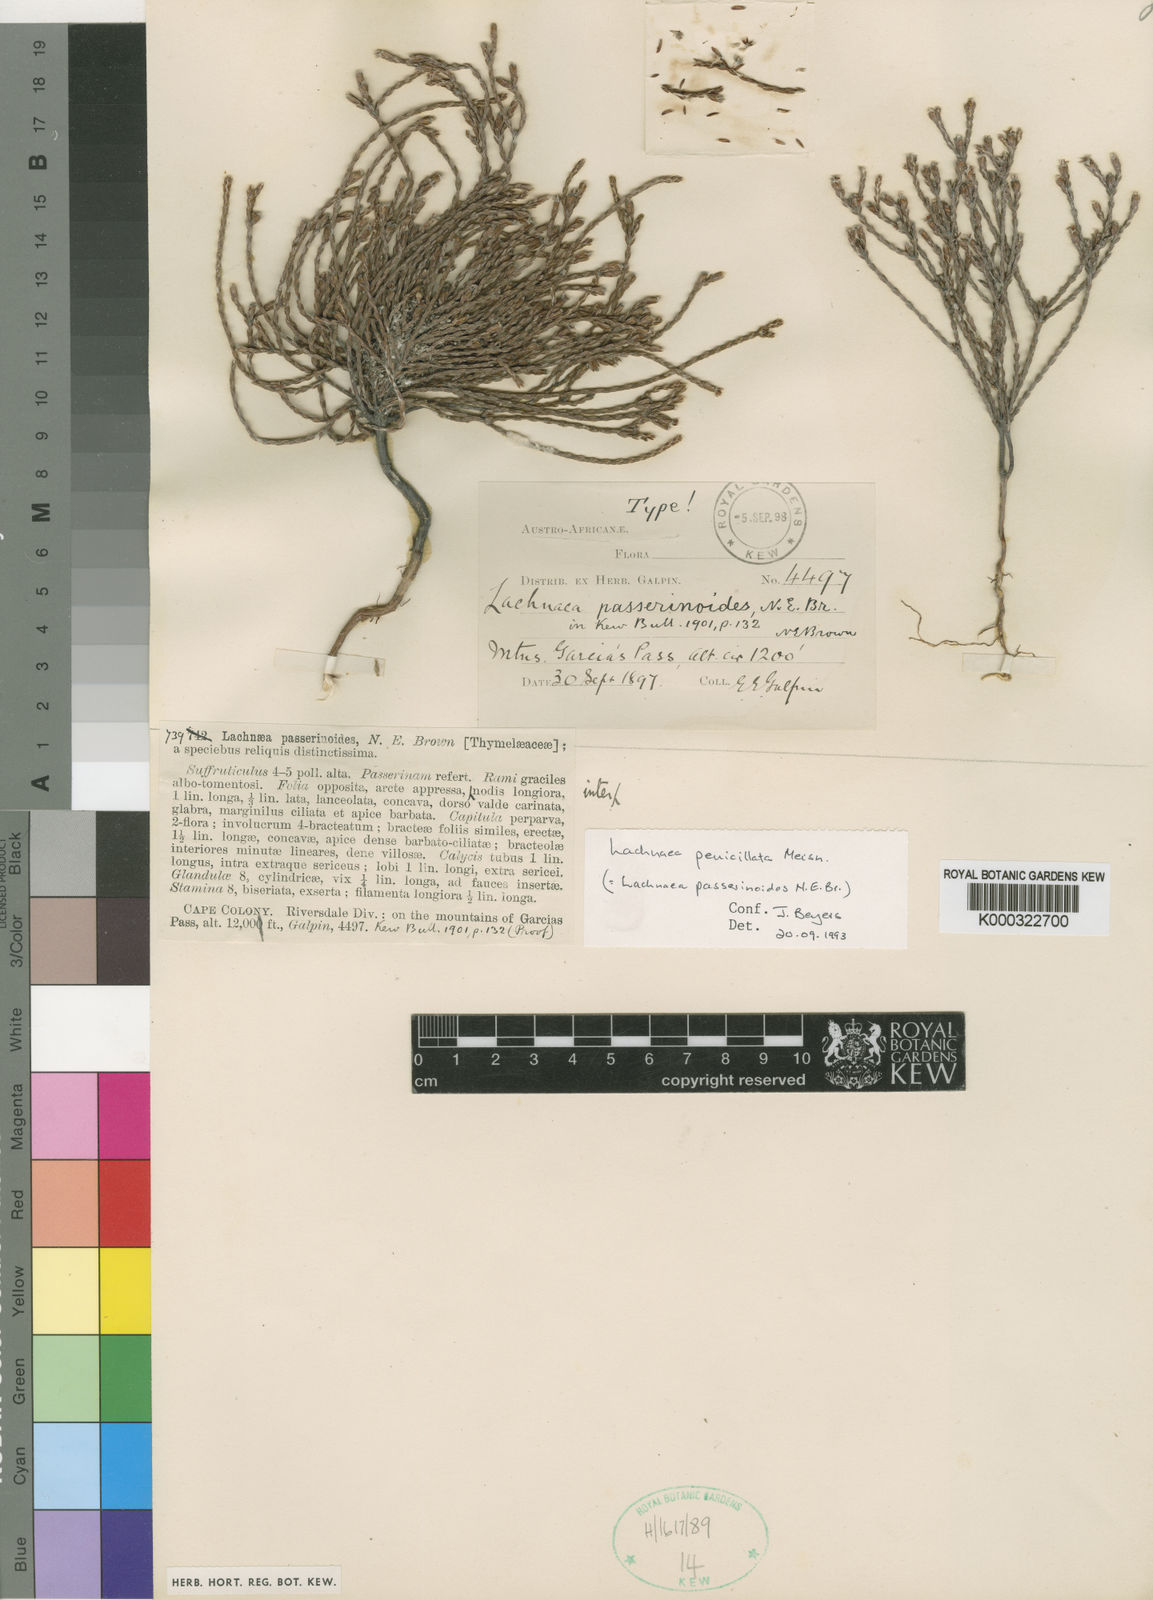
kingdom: Plantae
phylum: Tracheophyta
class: Magnoliopsida
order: Malvales
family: Thymelaeaceae
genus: Lachnaea
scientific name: Lachnaea
